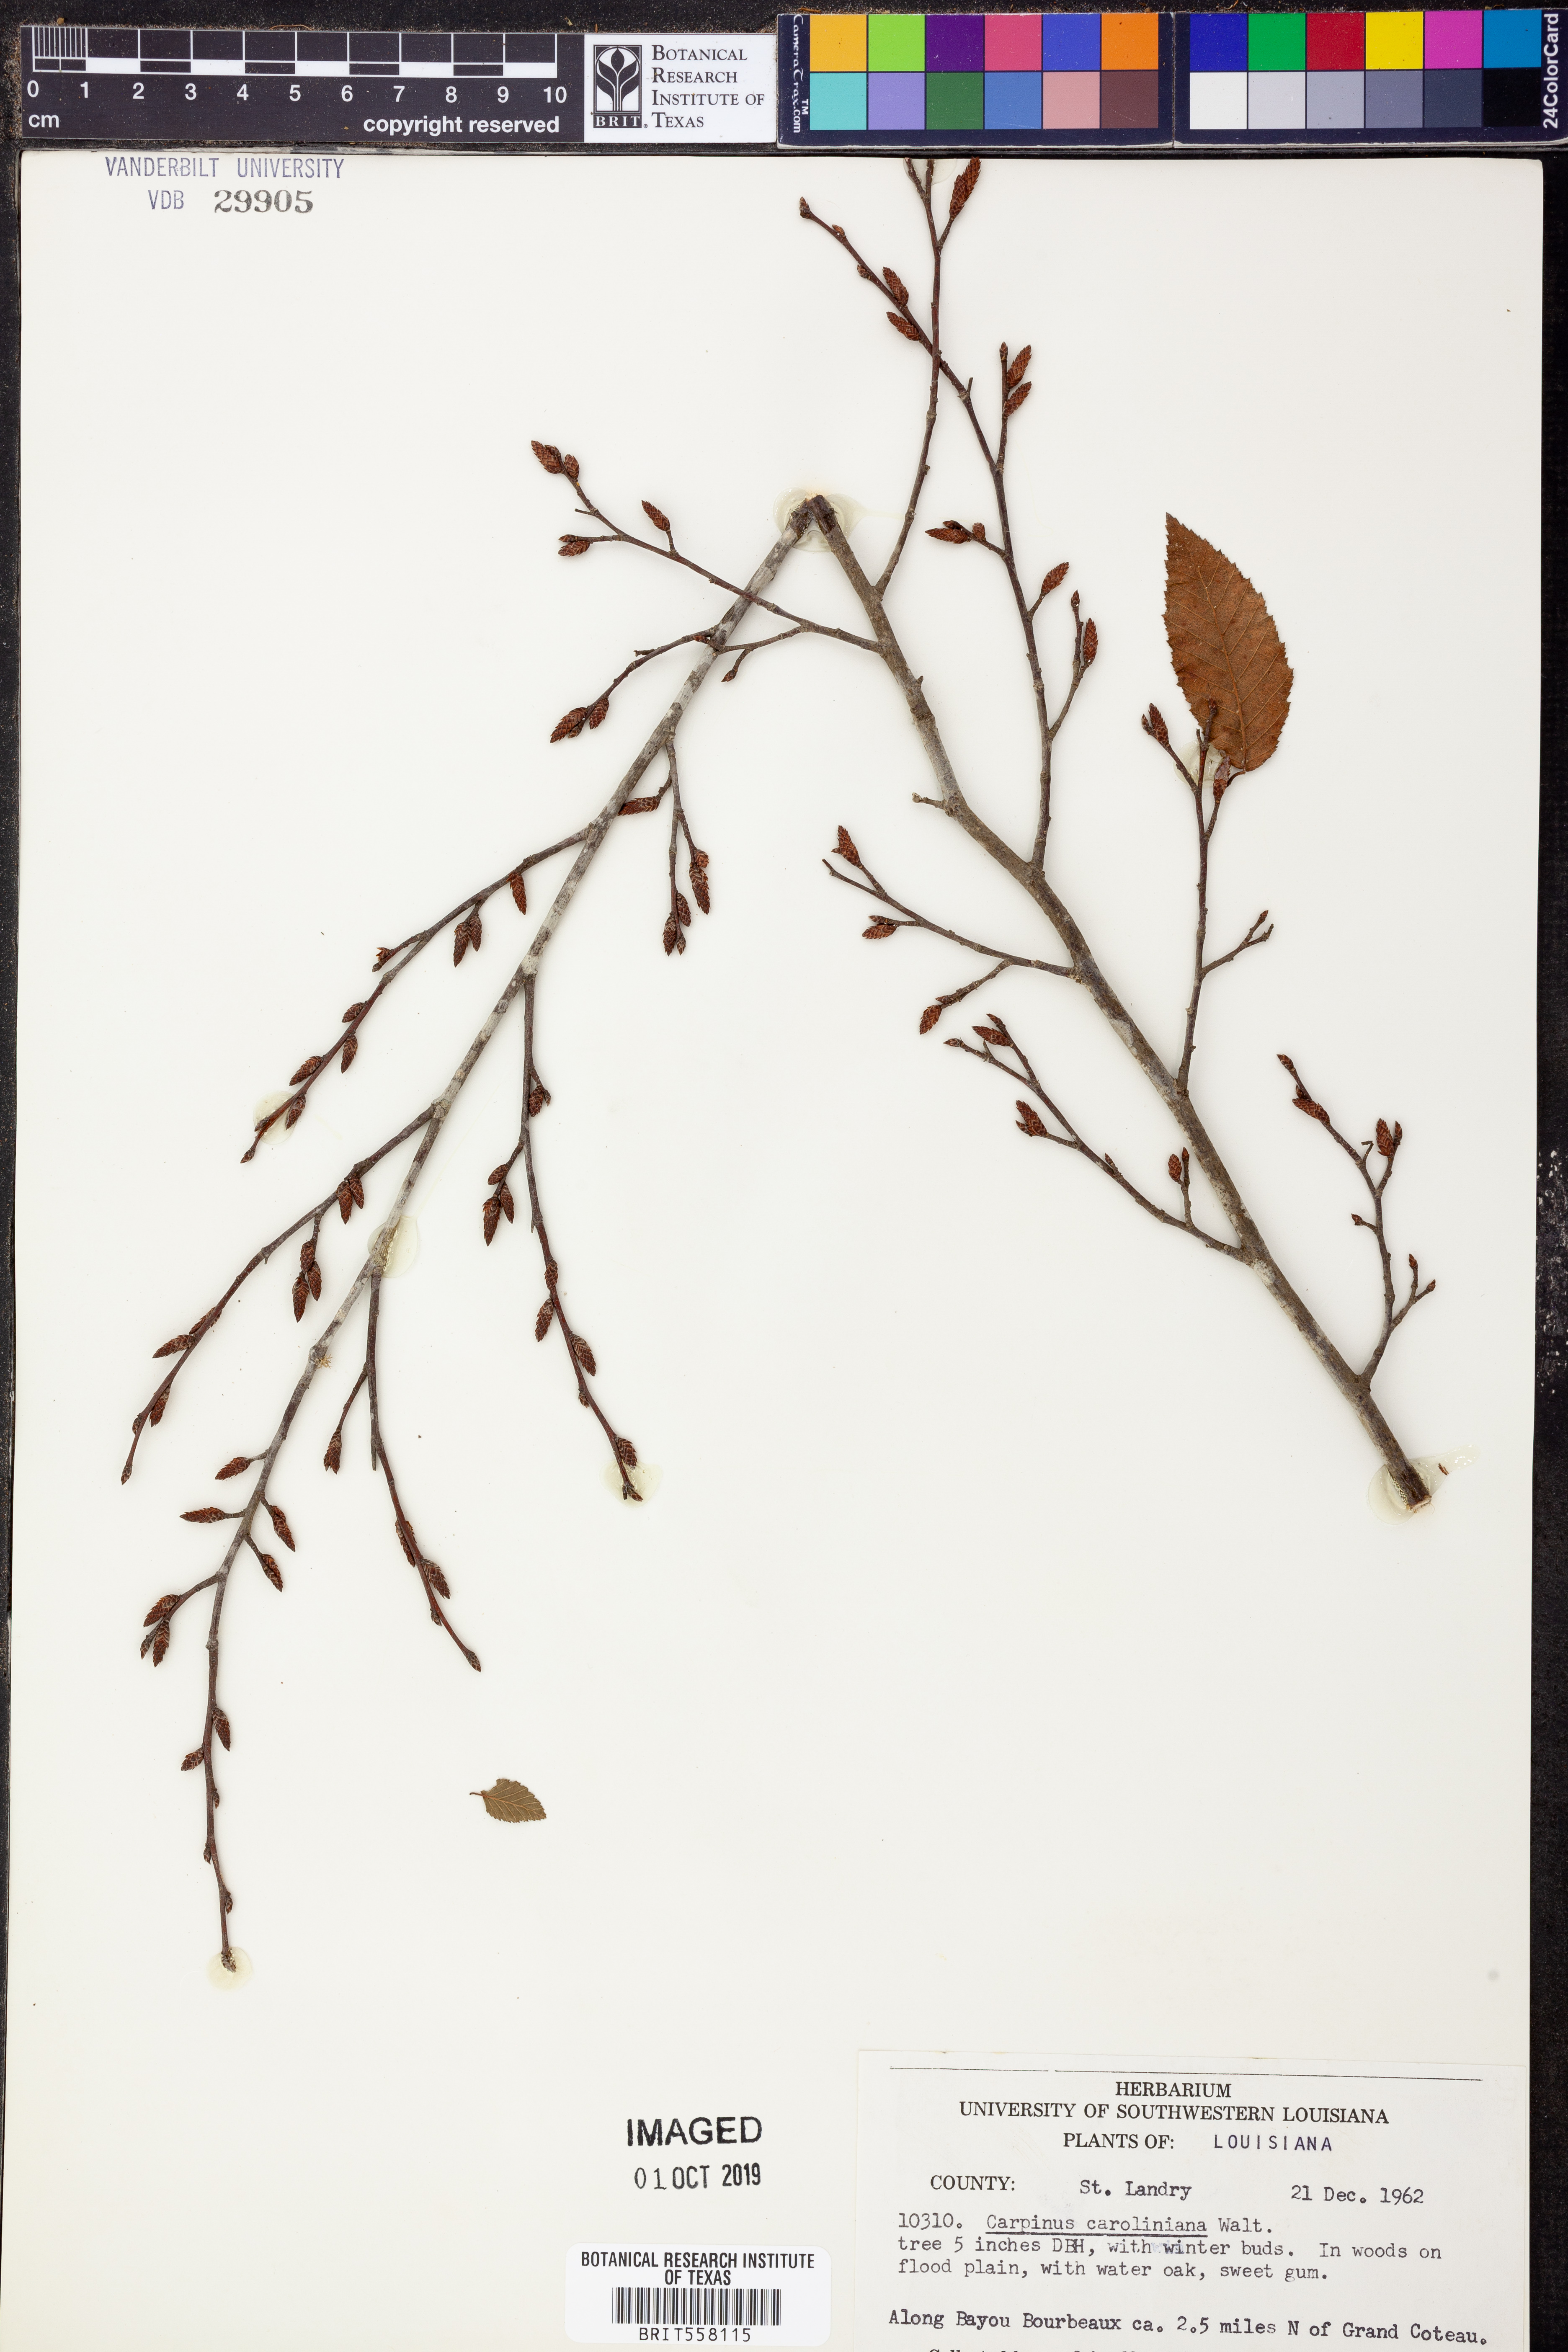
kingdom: Plantae
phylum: Tracheophyta
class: Magnoliopsida
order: Fagales
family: Betulaceae
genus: Carpinus
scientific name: Carpinus caroliniana
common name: American hornbeam
